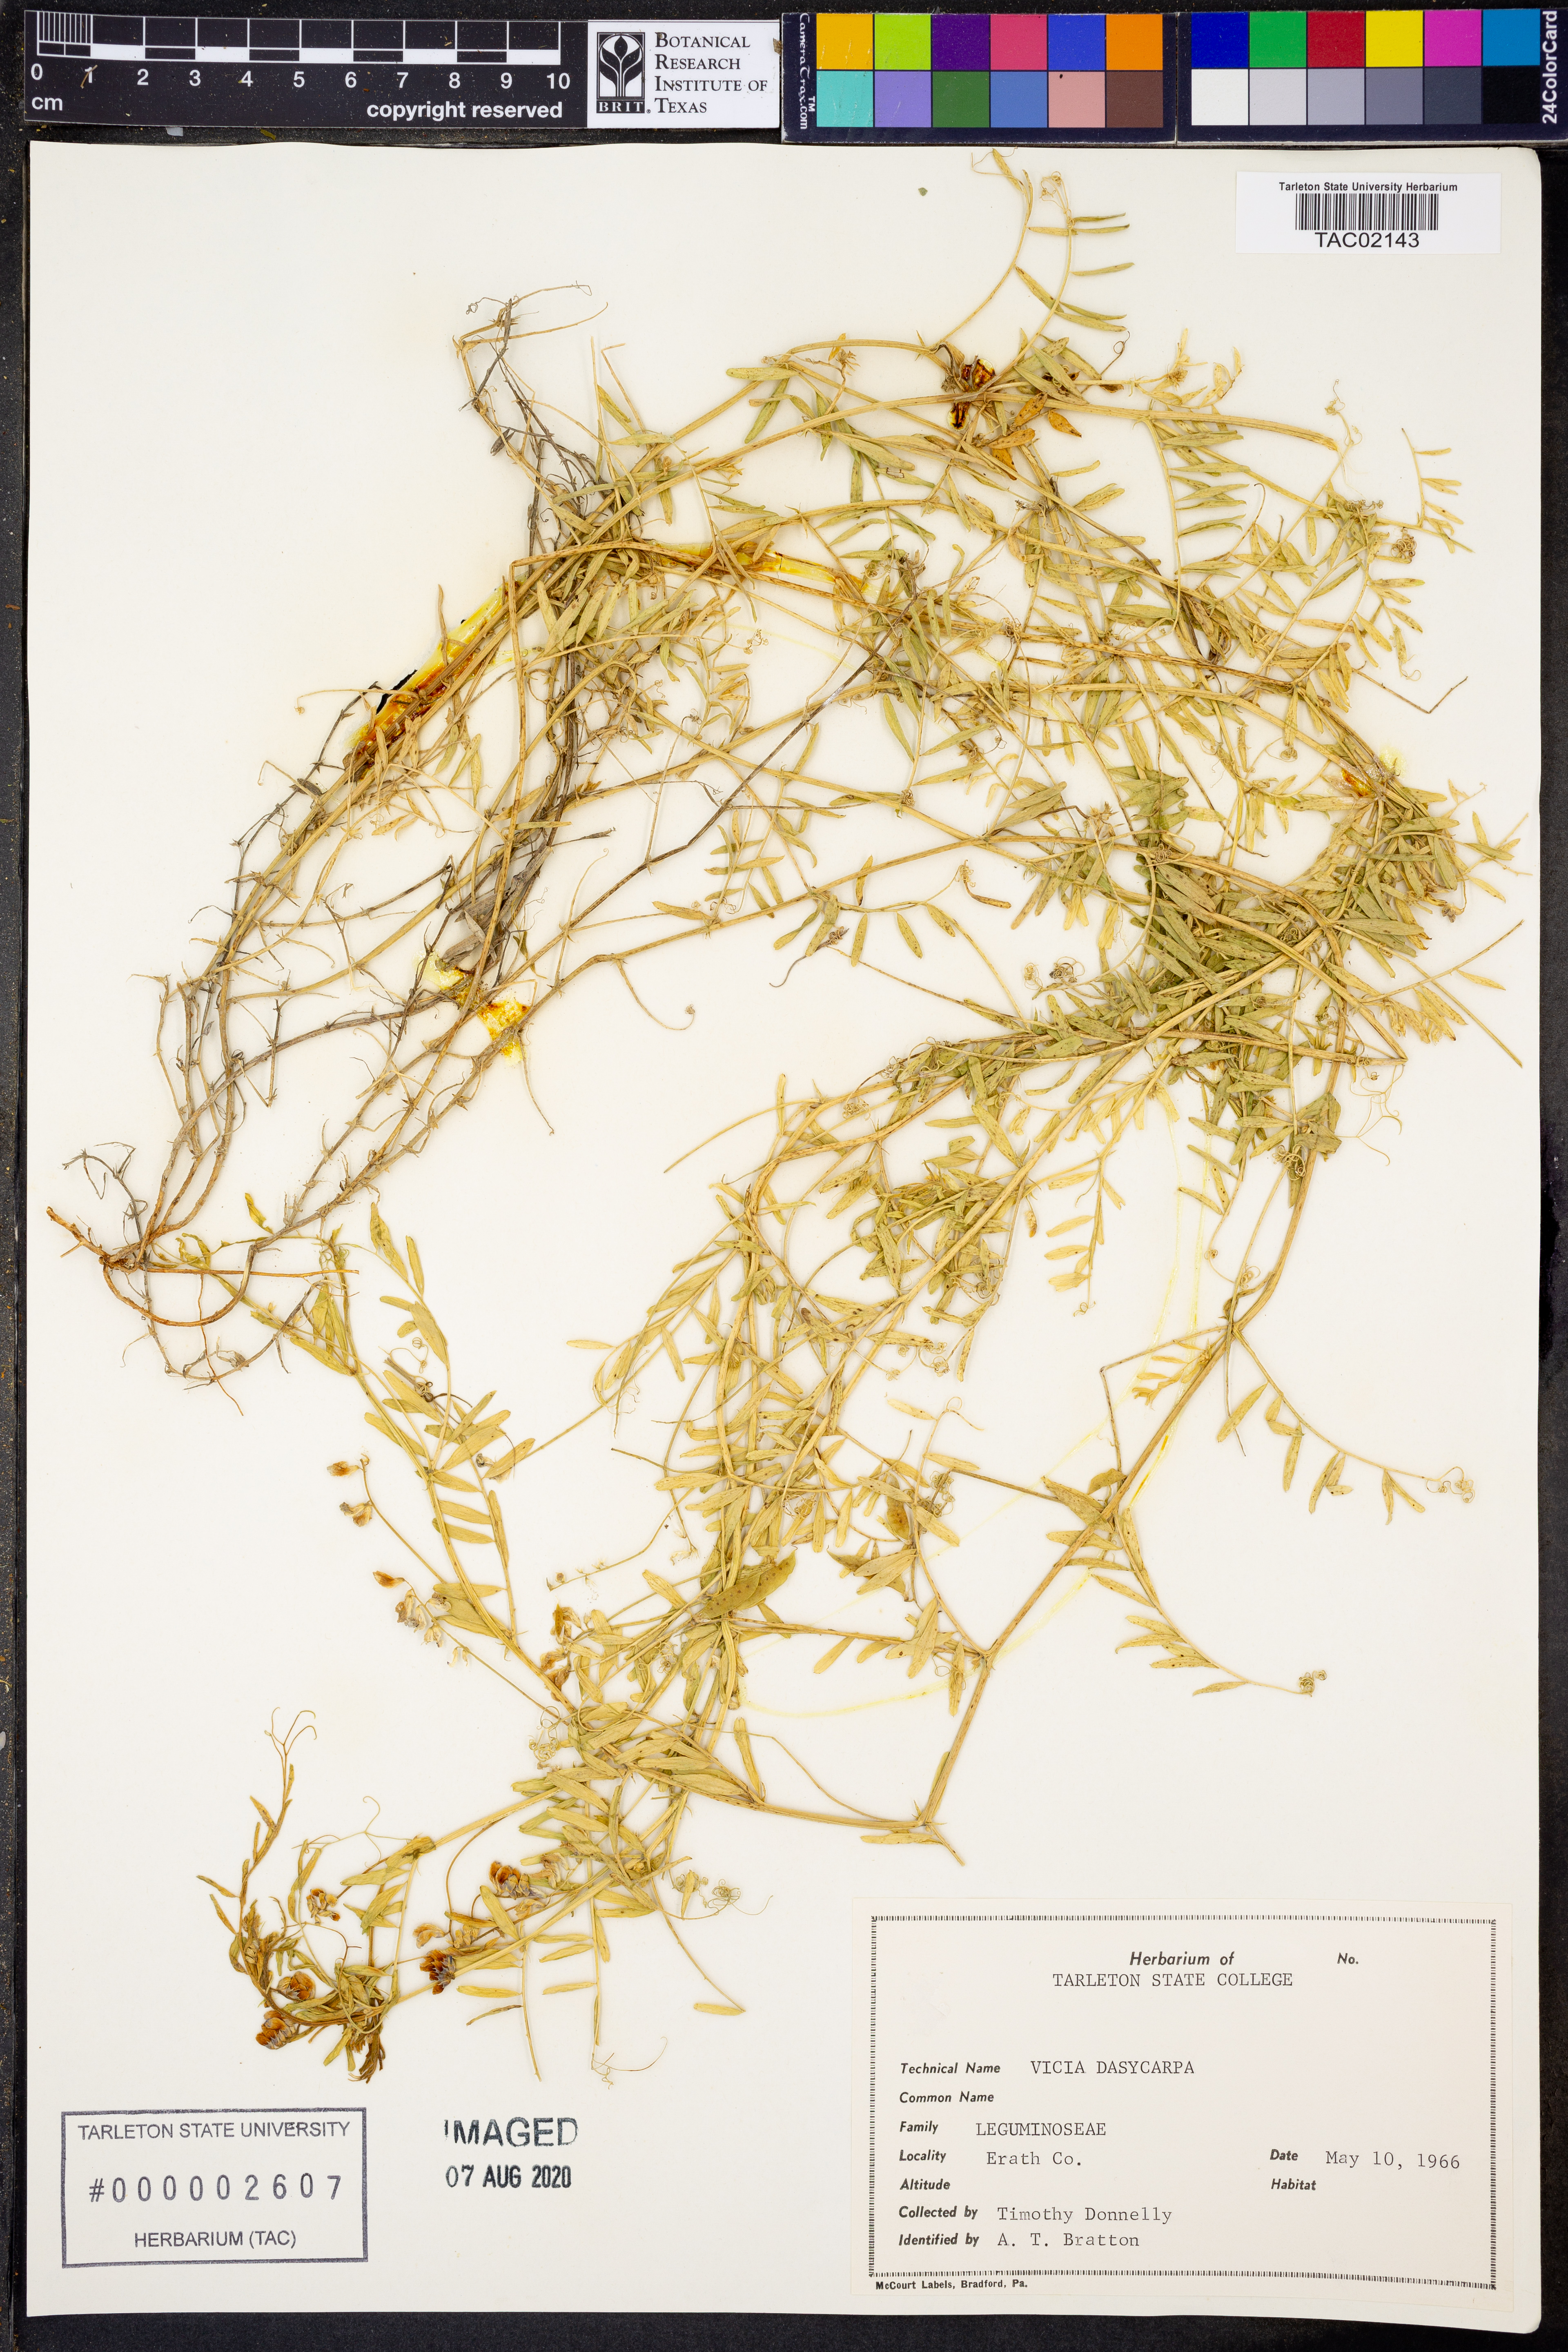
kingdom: Plantae
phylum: Tracheophyta
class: Magnoliopsida
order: Fabales
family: Fabaceae
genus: Vicia
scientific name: Vicia villosa
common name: Fodder vetch
